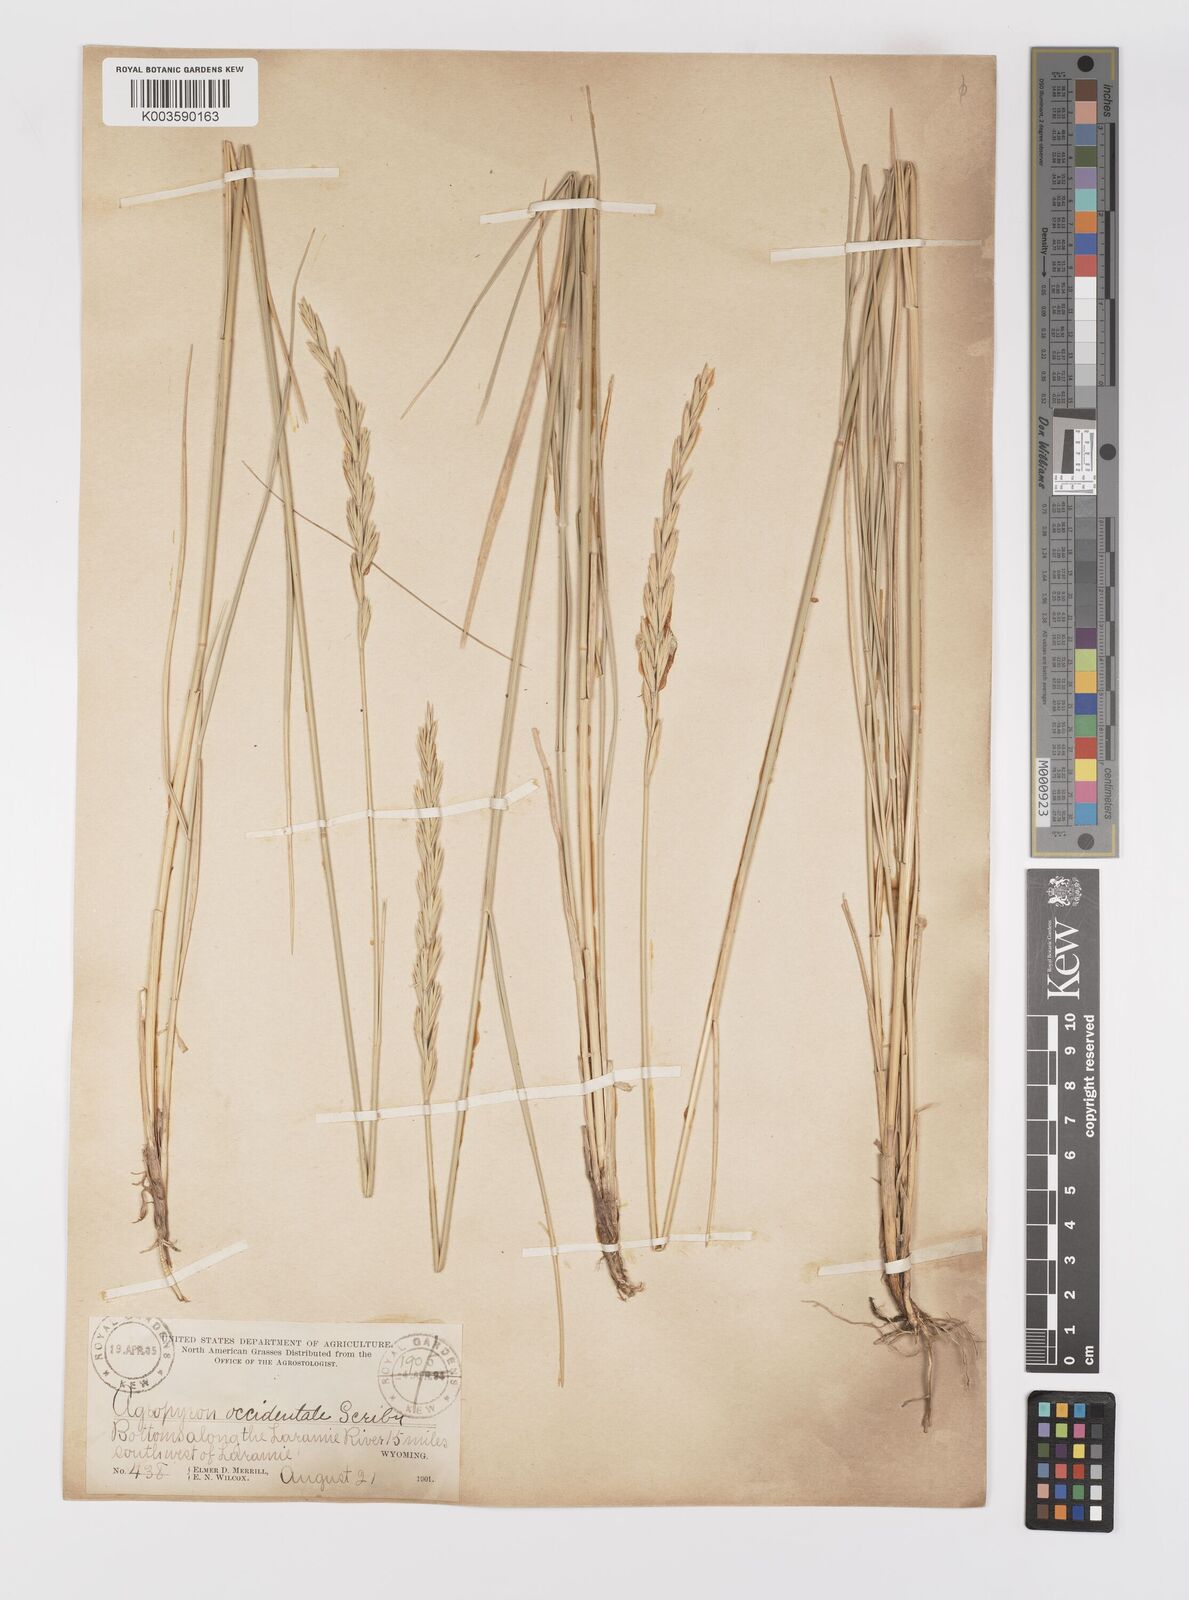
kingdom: Plantae
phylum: Tracheophyta
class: Liliopsida
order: Poales
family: Poaceae
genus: Elymus
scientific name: Elymus smithii
